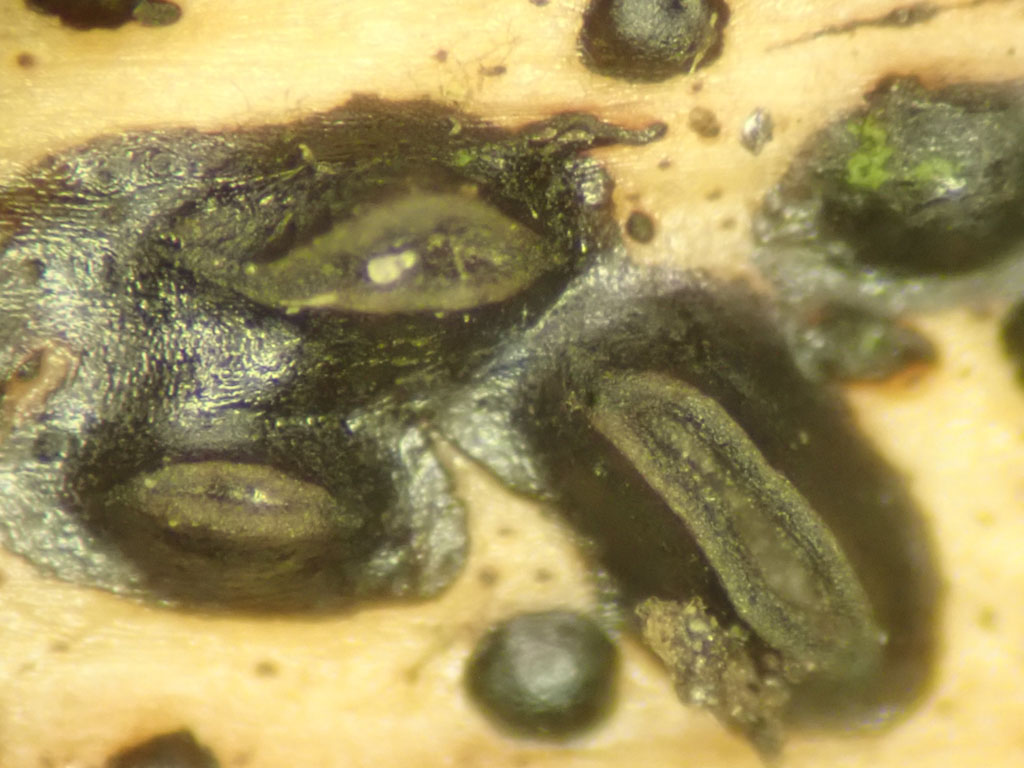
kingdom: Fungi
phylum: Ascomycota
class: Leotiomycetes
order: Rhytismatales
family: Rhytismataceae
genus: Hypoderma
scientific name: Hypoderma rubi
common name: brombær-fureplet
